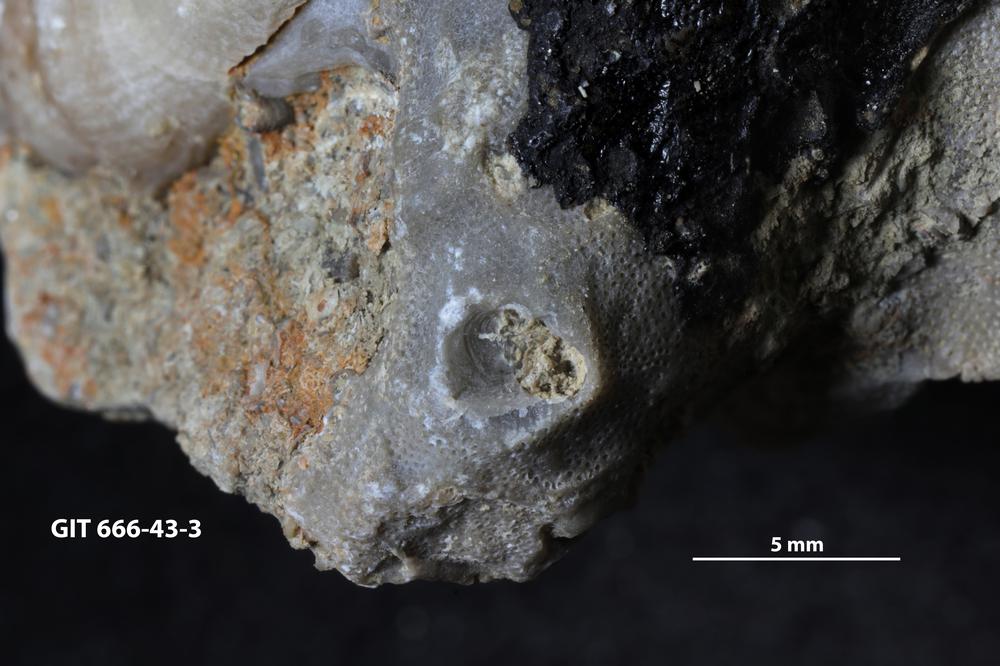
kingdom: Animalia
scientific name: Animalia
